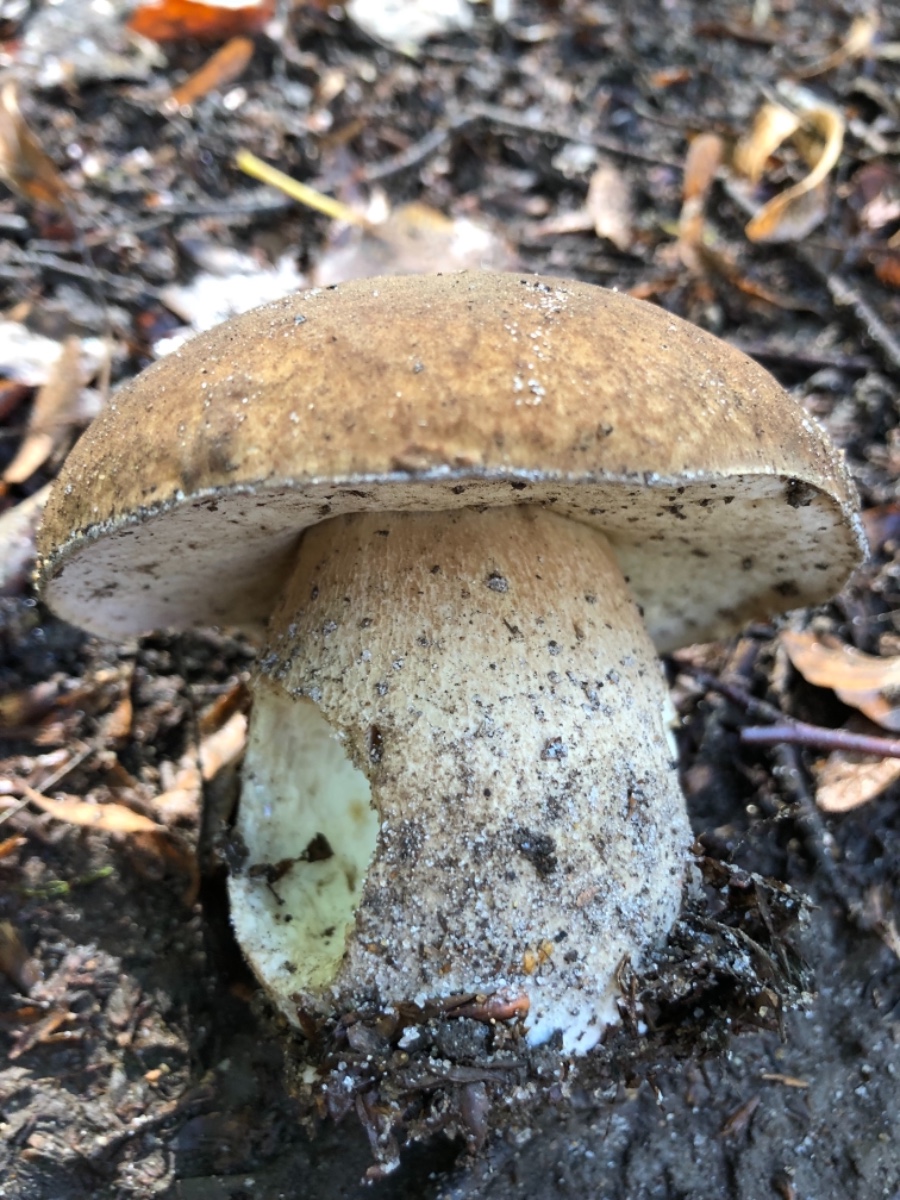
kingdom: Fungi
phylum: Basidiomycota
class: Agaricomycetes
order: Boletales
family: Boletaceae
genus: Boletus
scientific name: Boletus reticulatus
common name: sommer-rørhat
